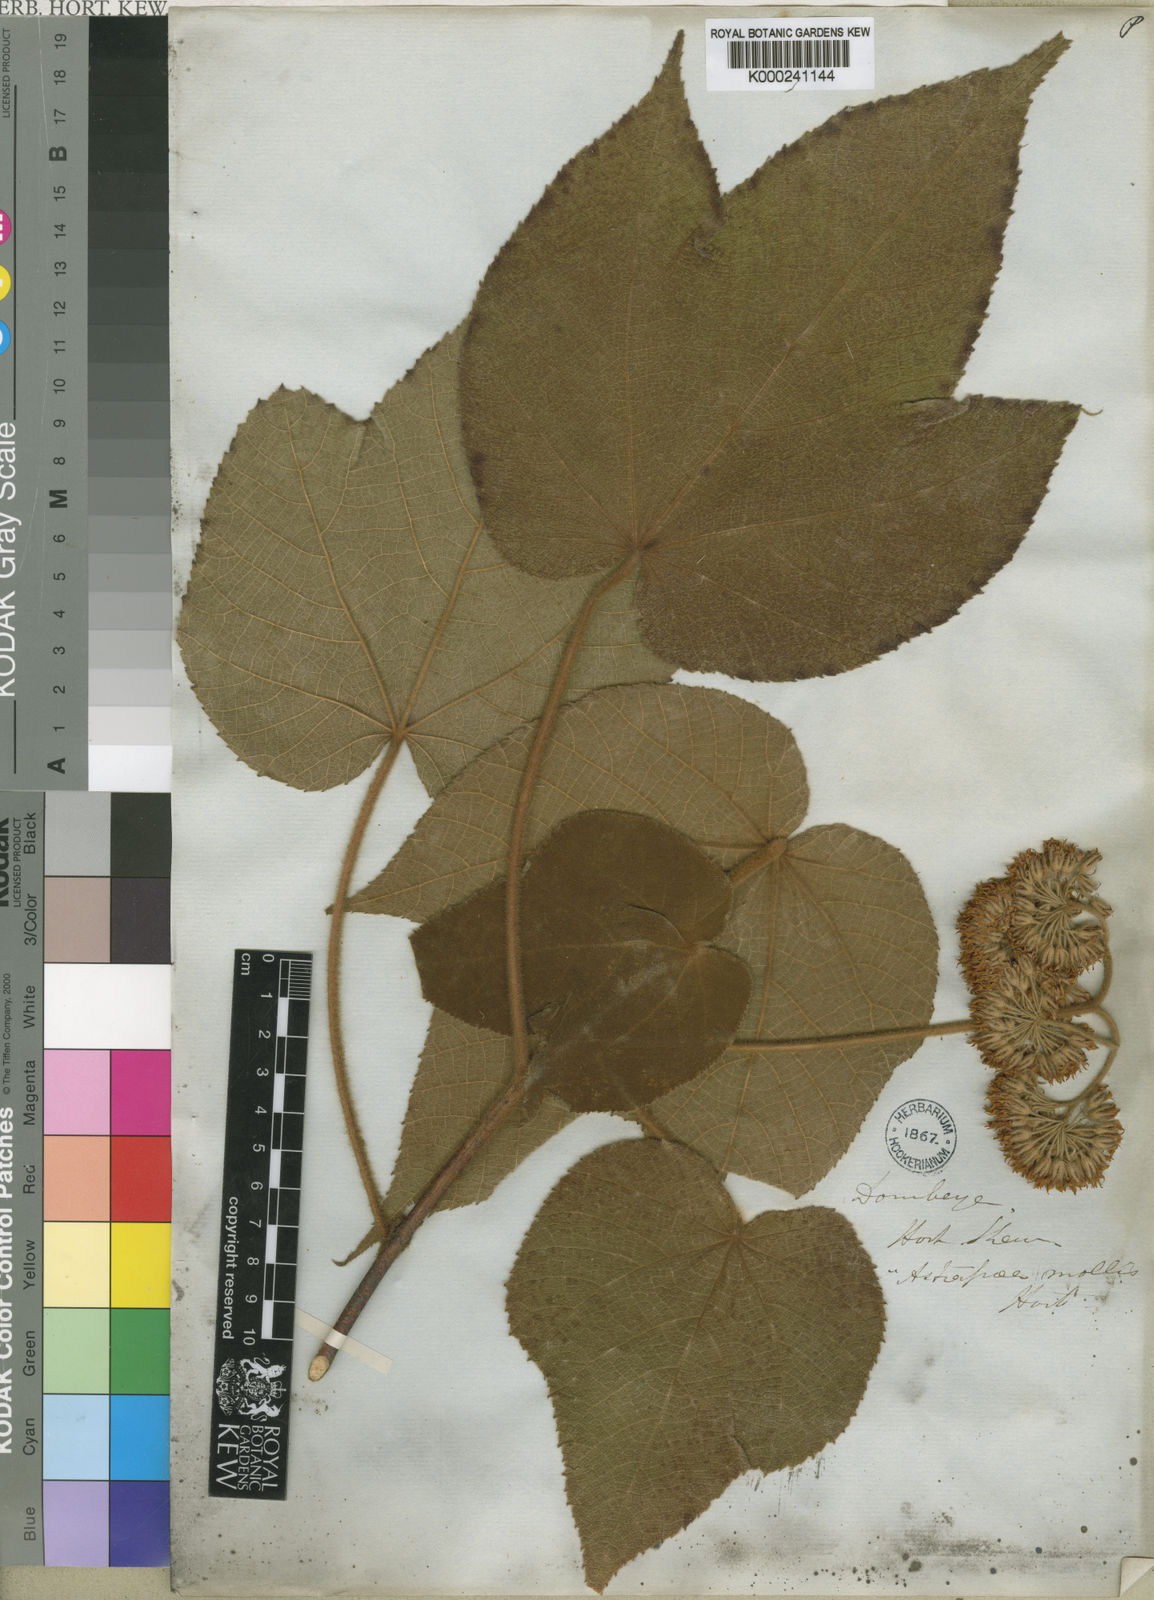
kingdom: Plantae
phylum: Tracheophyta
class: Magnoliopsida
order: Malvales
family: Malvaceae
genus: Dombeya
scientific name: Dombeya mollis
